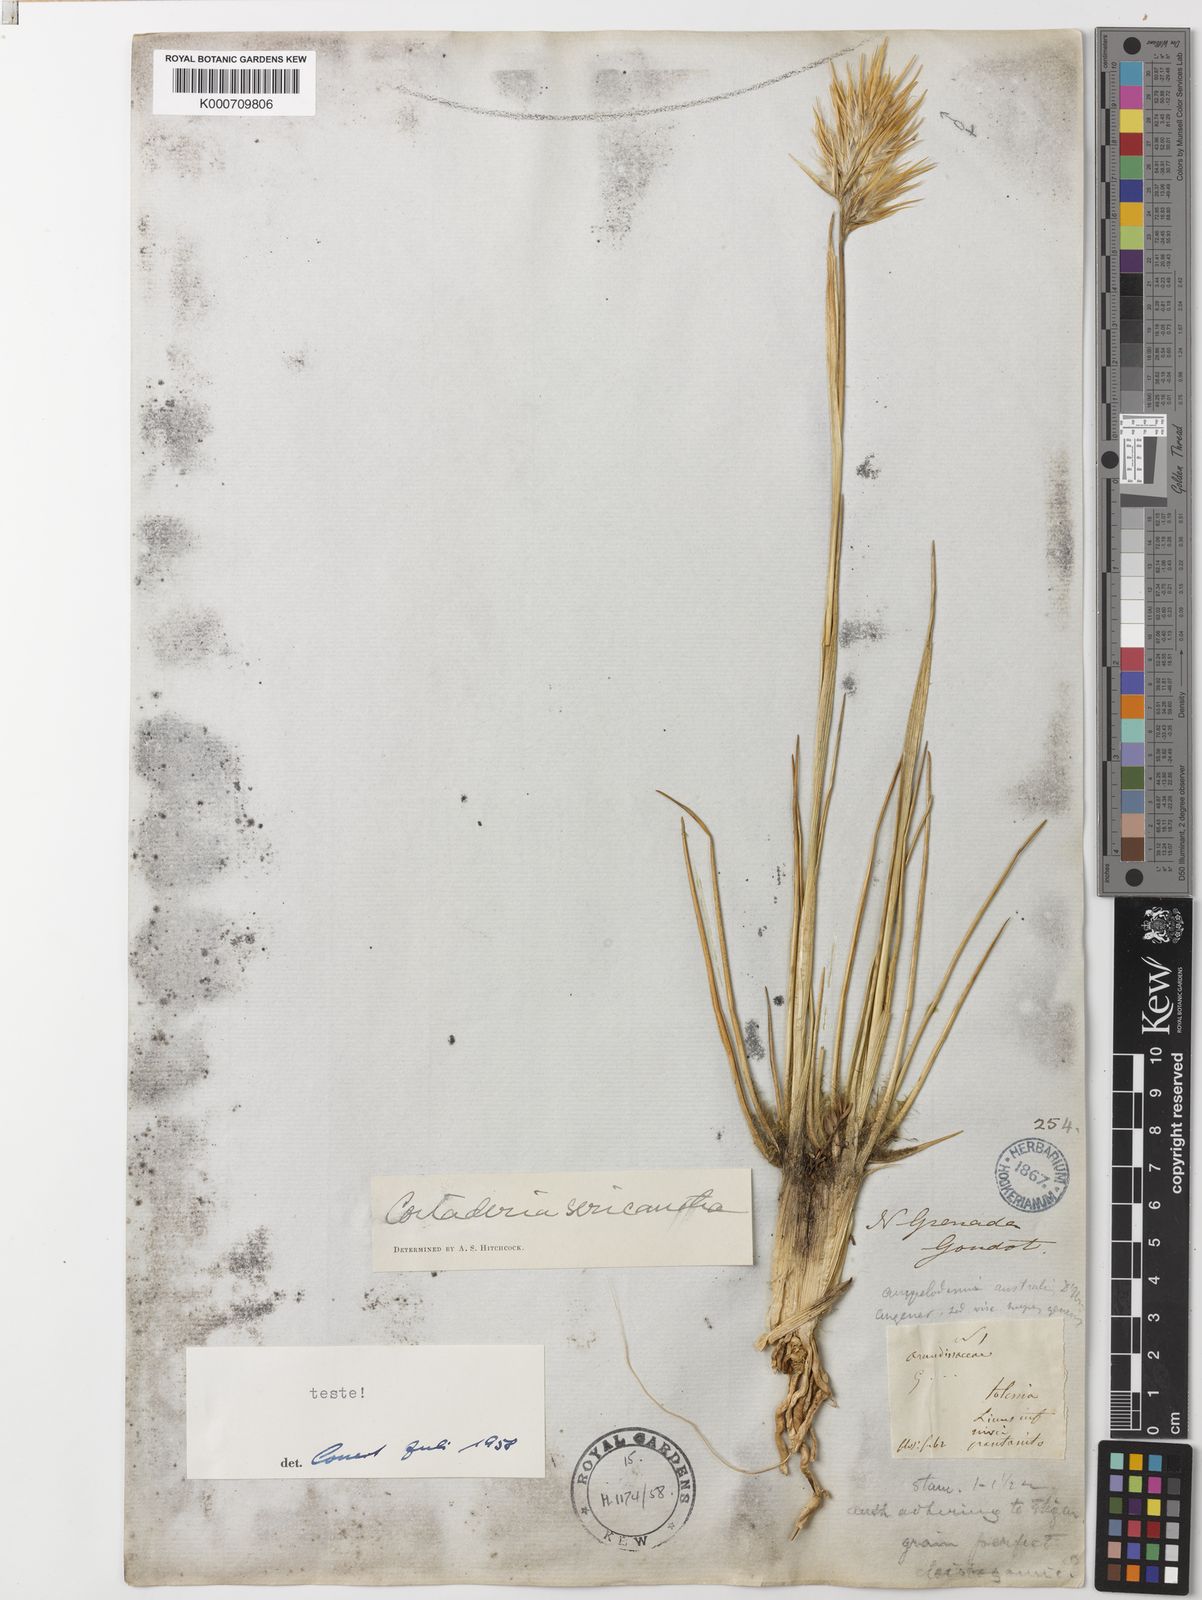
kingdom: Plantae
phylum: Tracheophyta
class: Liliopsida
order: Poales
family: Poaceae
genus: Cortaderia
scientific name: Cortaderia sericantha
